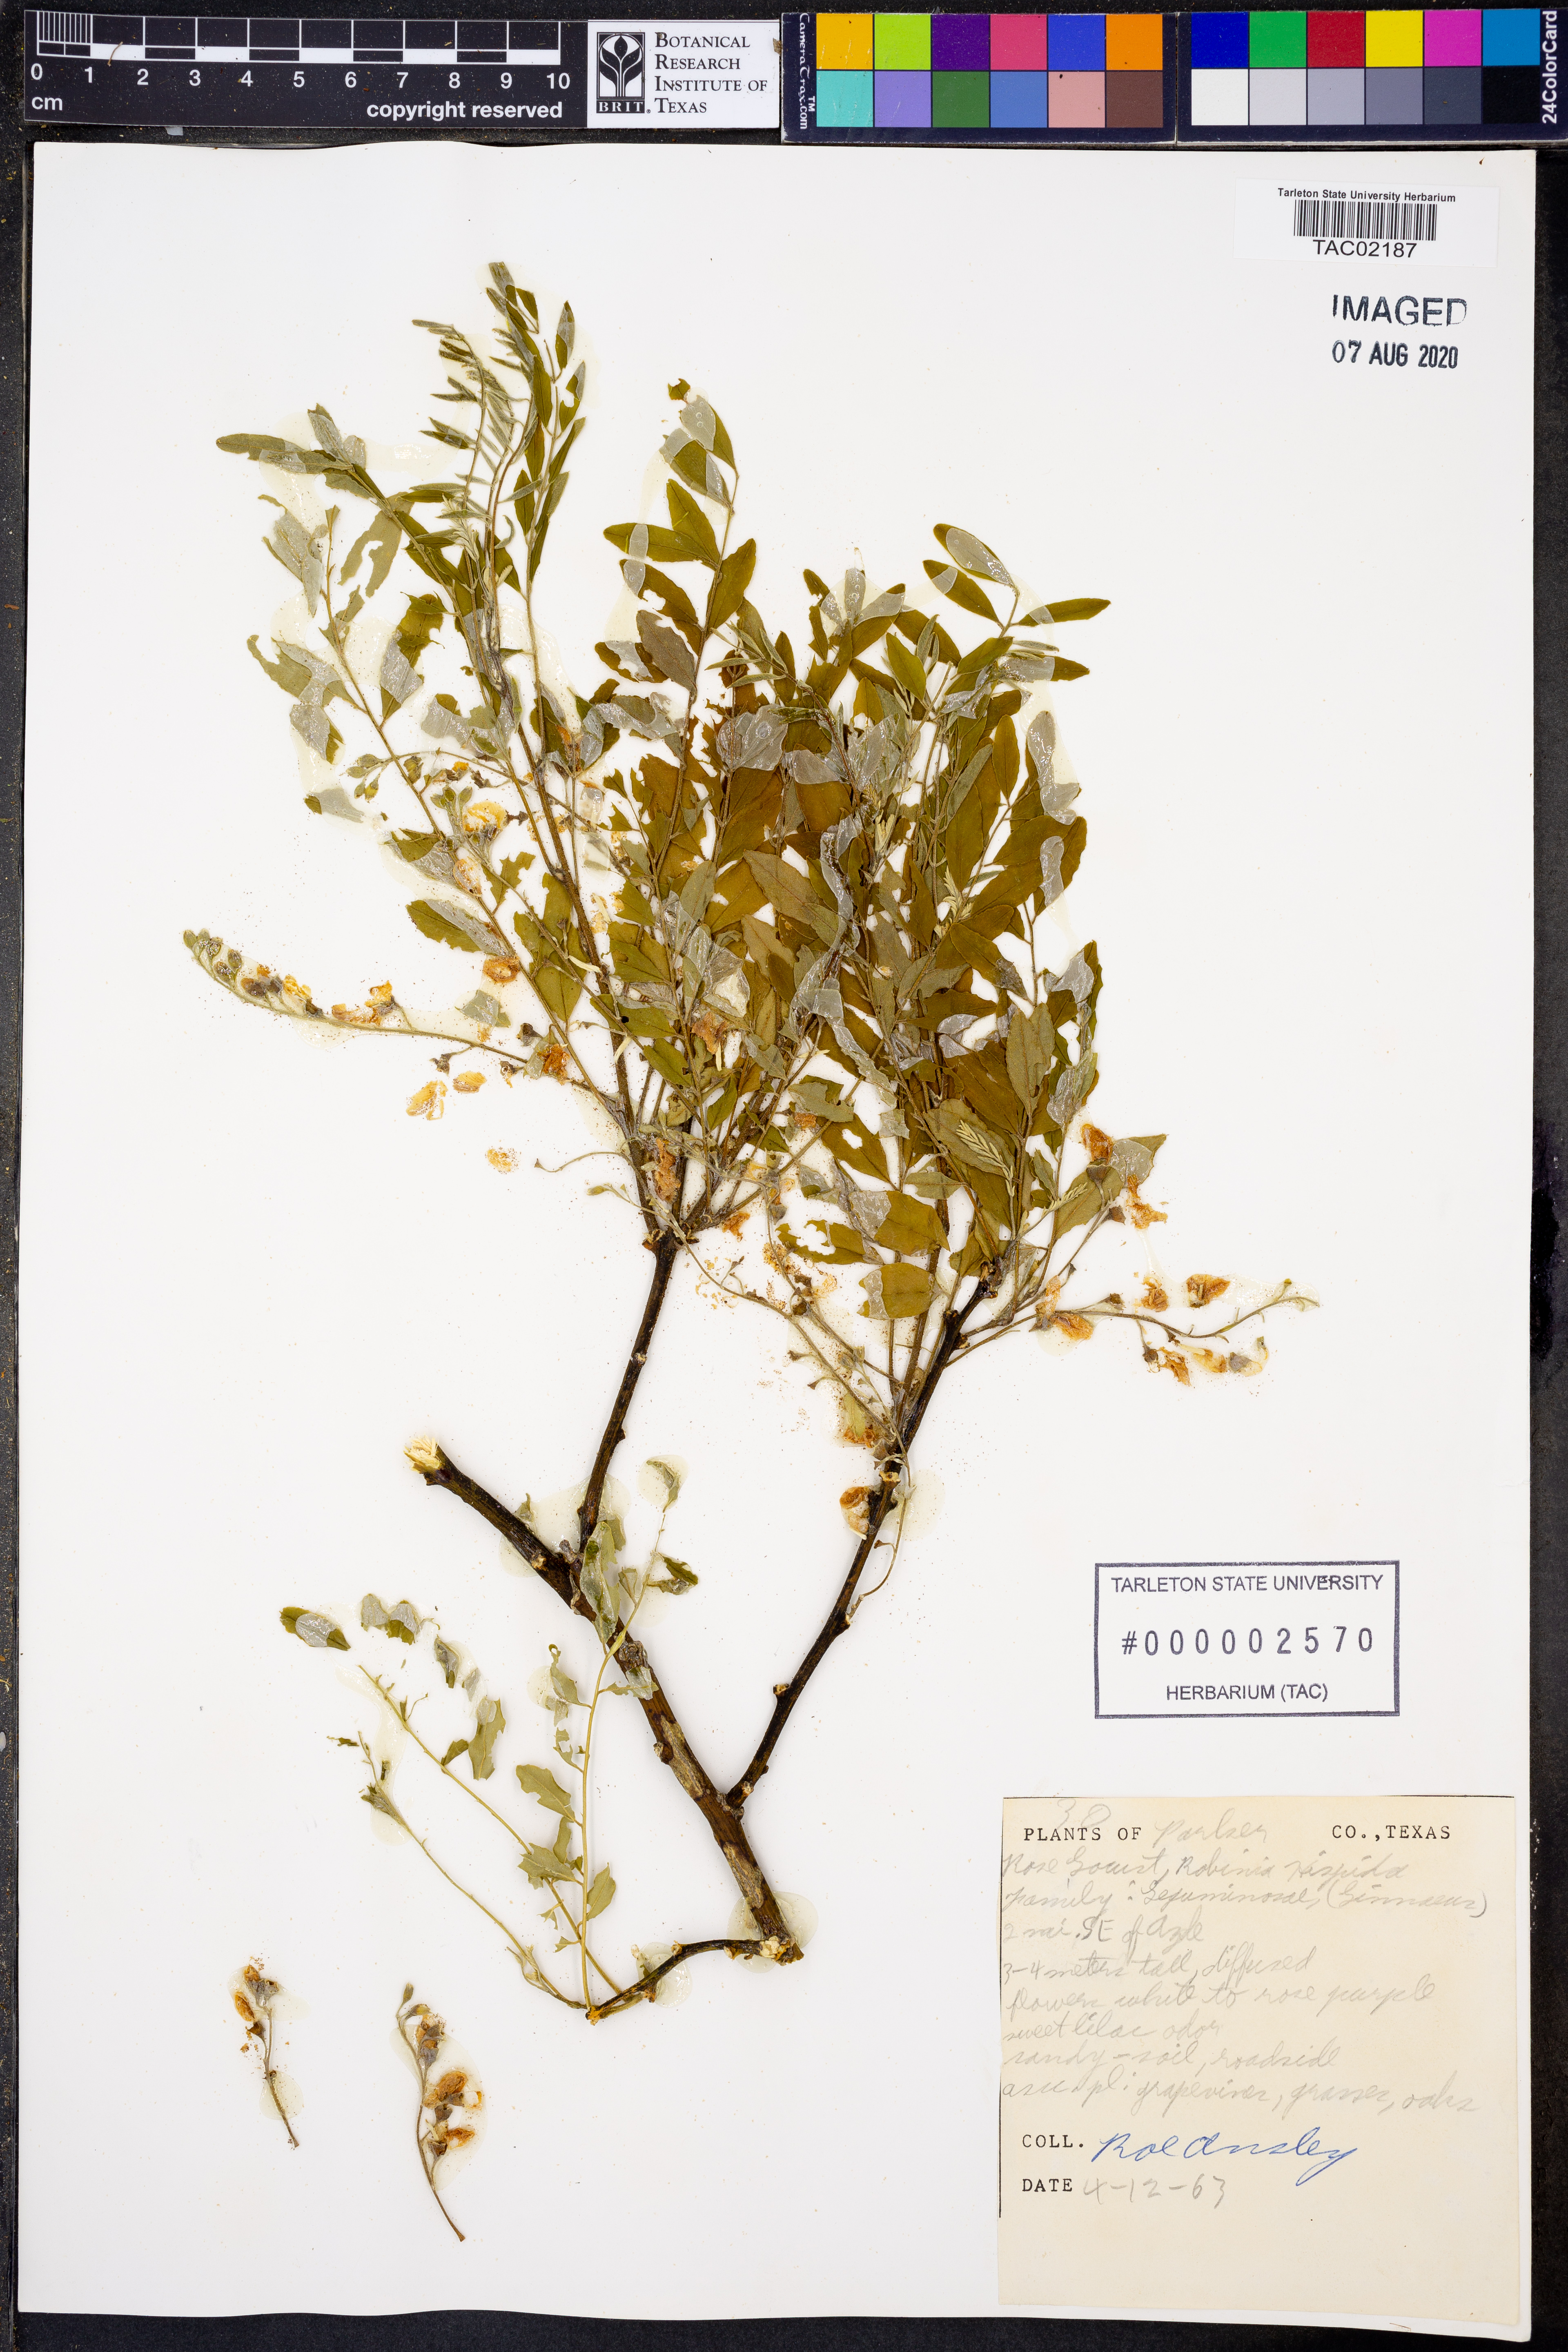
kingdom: Plantae
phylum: Tracheophyta
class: Magnoliopsida
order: Fabales
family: Fabaceae
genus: Robinia
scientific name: Robinia hispida
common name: Bristly locust
